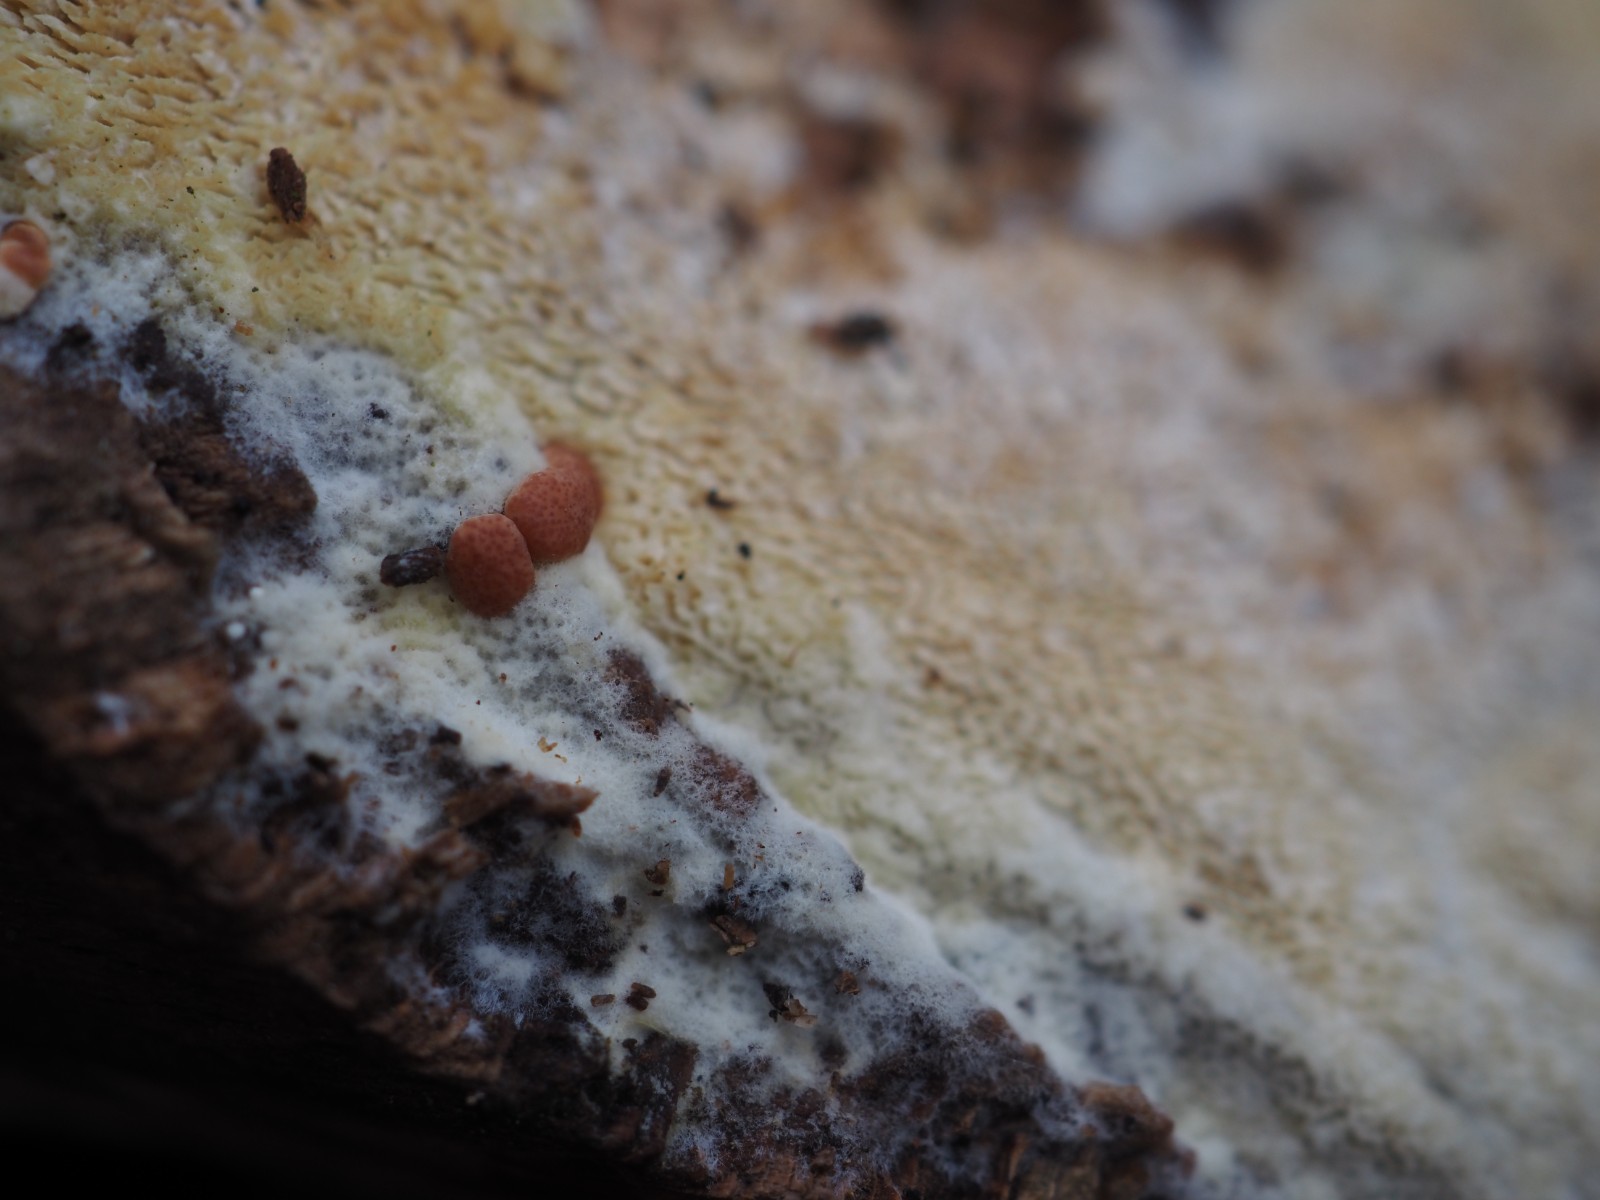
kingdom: Fungi
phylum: Ascomycota
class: Sordariomycetes
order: Hypocreales
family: Hypocreaceae
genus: Trichoderma
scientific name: Trichoderma
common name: kødkerne
